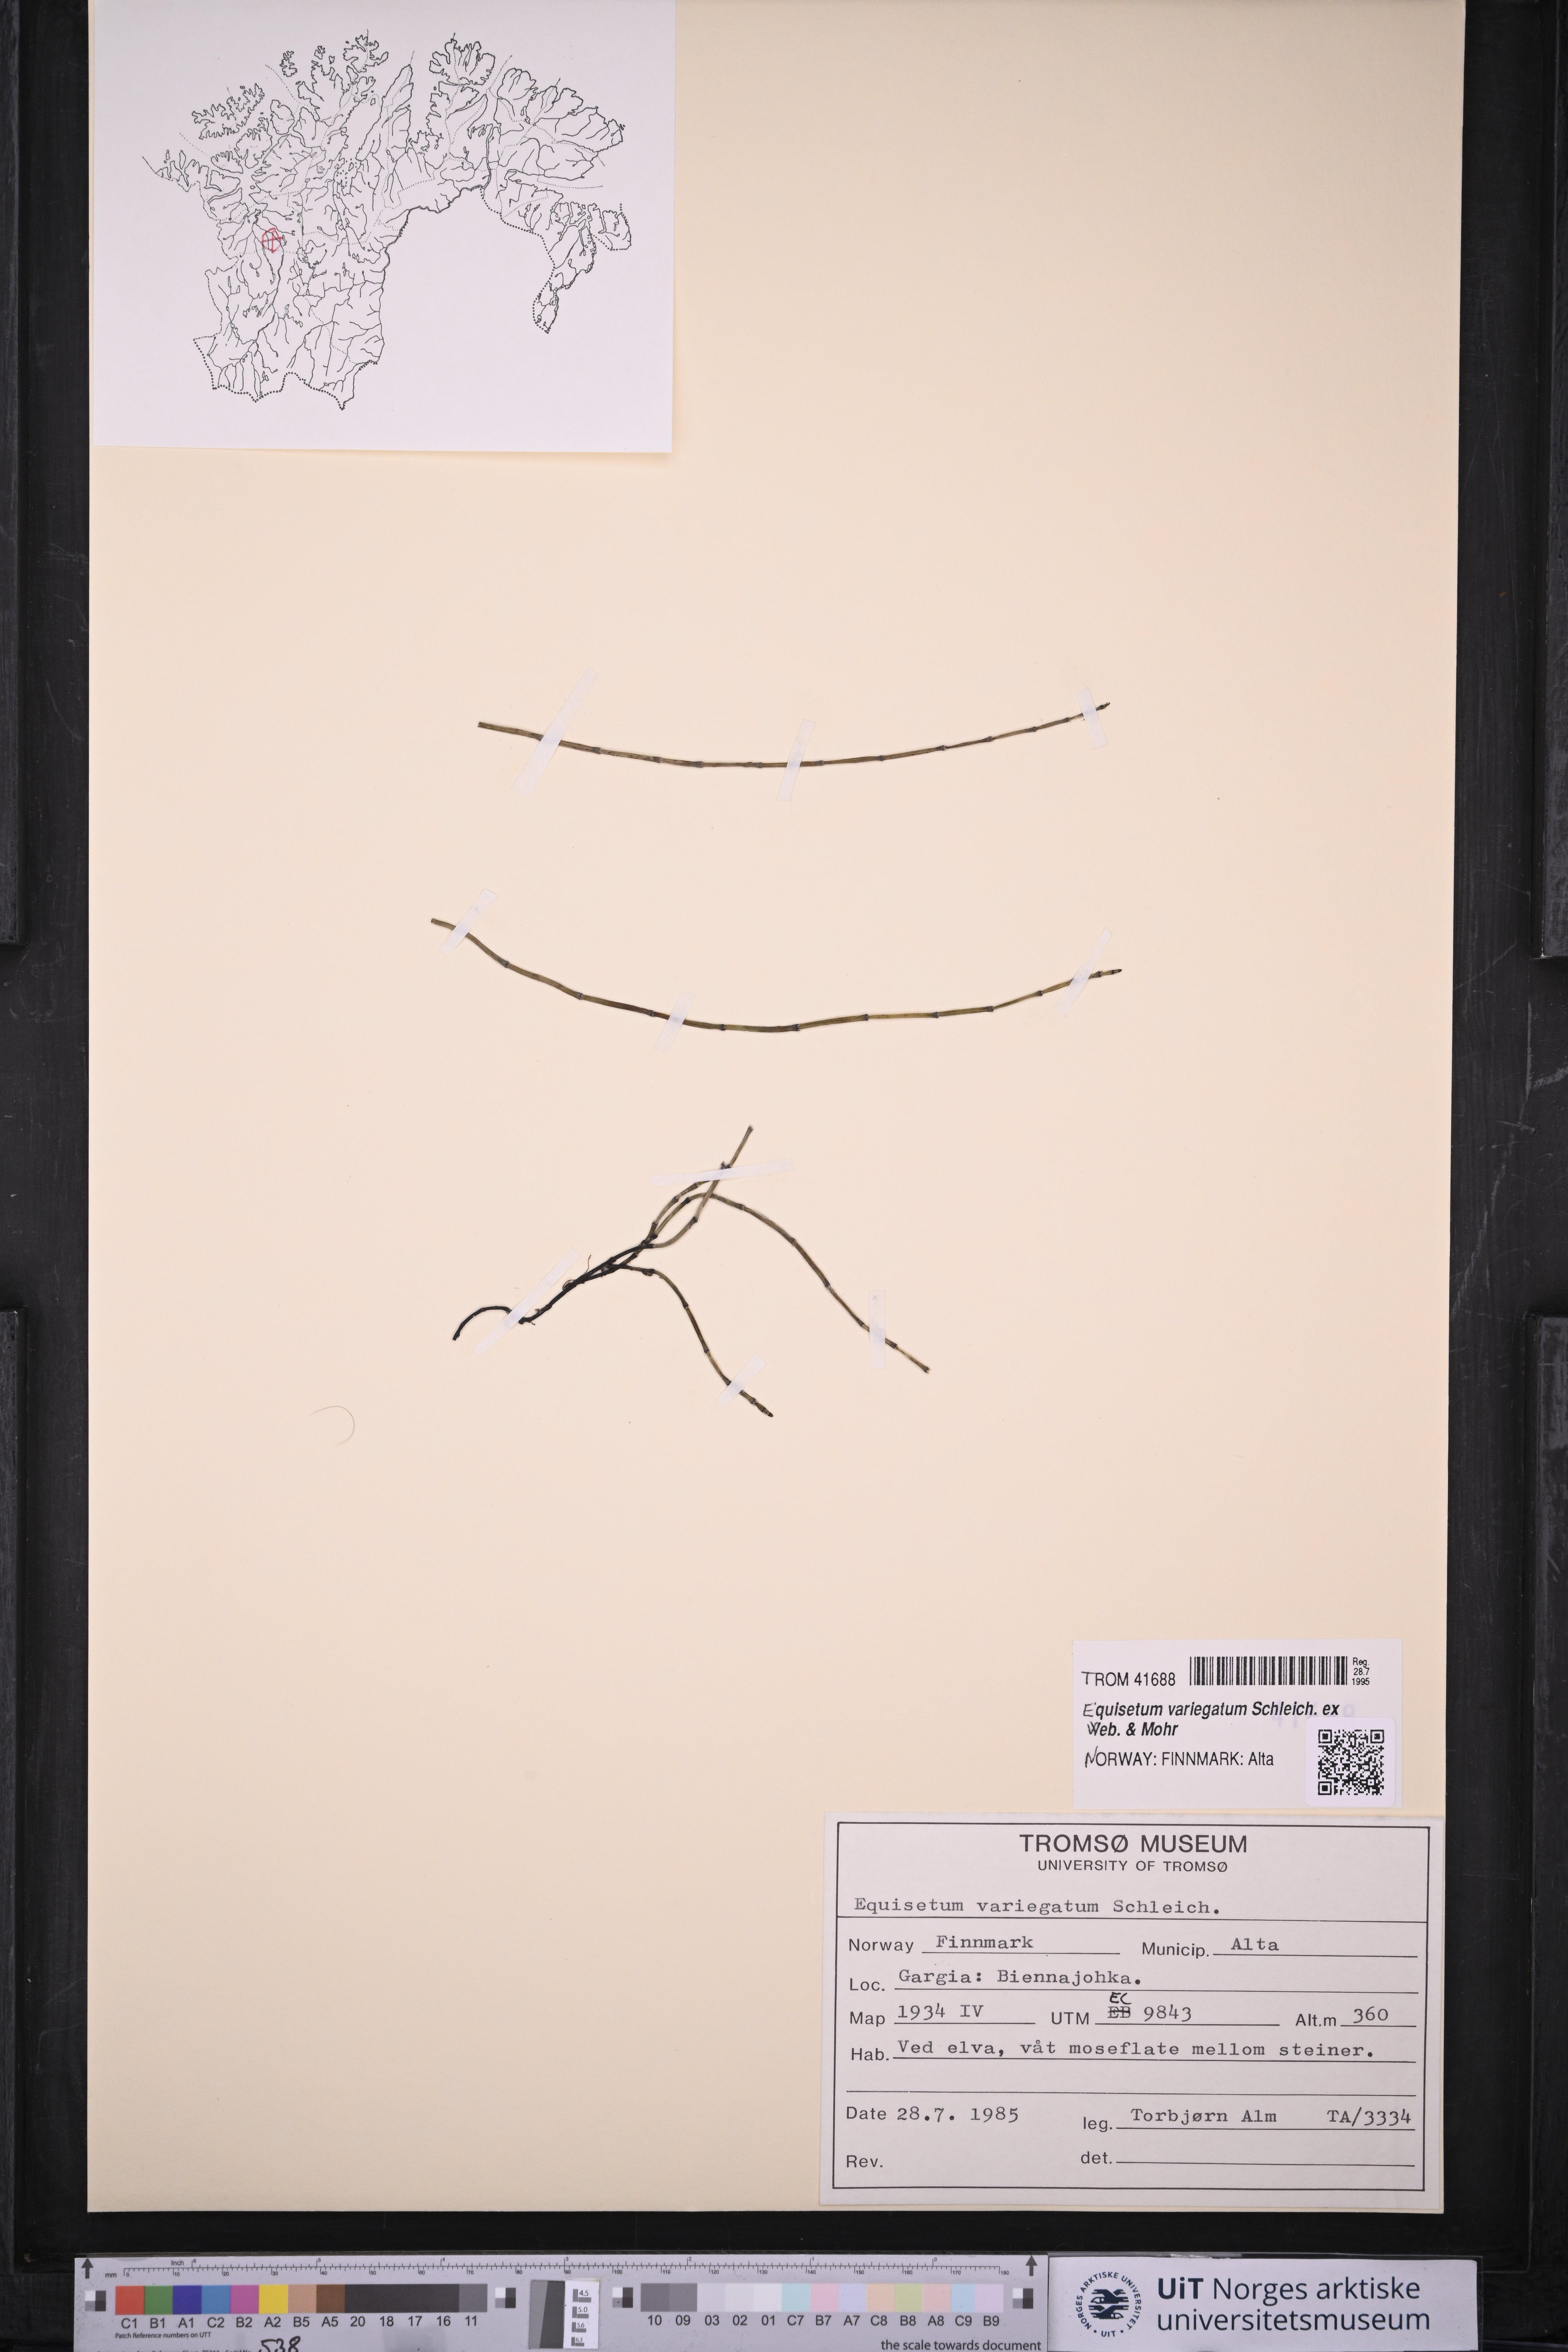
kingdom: Plantae
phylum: Tracheophyta
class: Polypodiopsida
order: Equisetales
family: Equisetaceae
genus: Equisetum
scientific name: Equisetum variegatum
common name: Variegated horsetail
